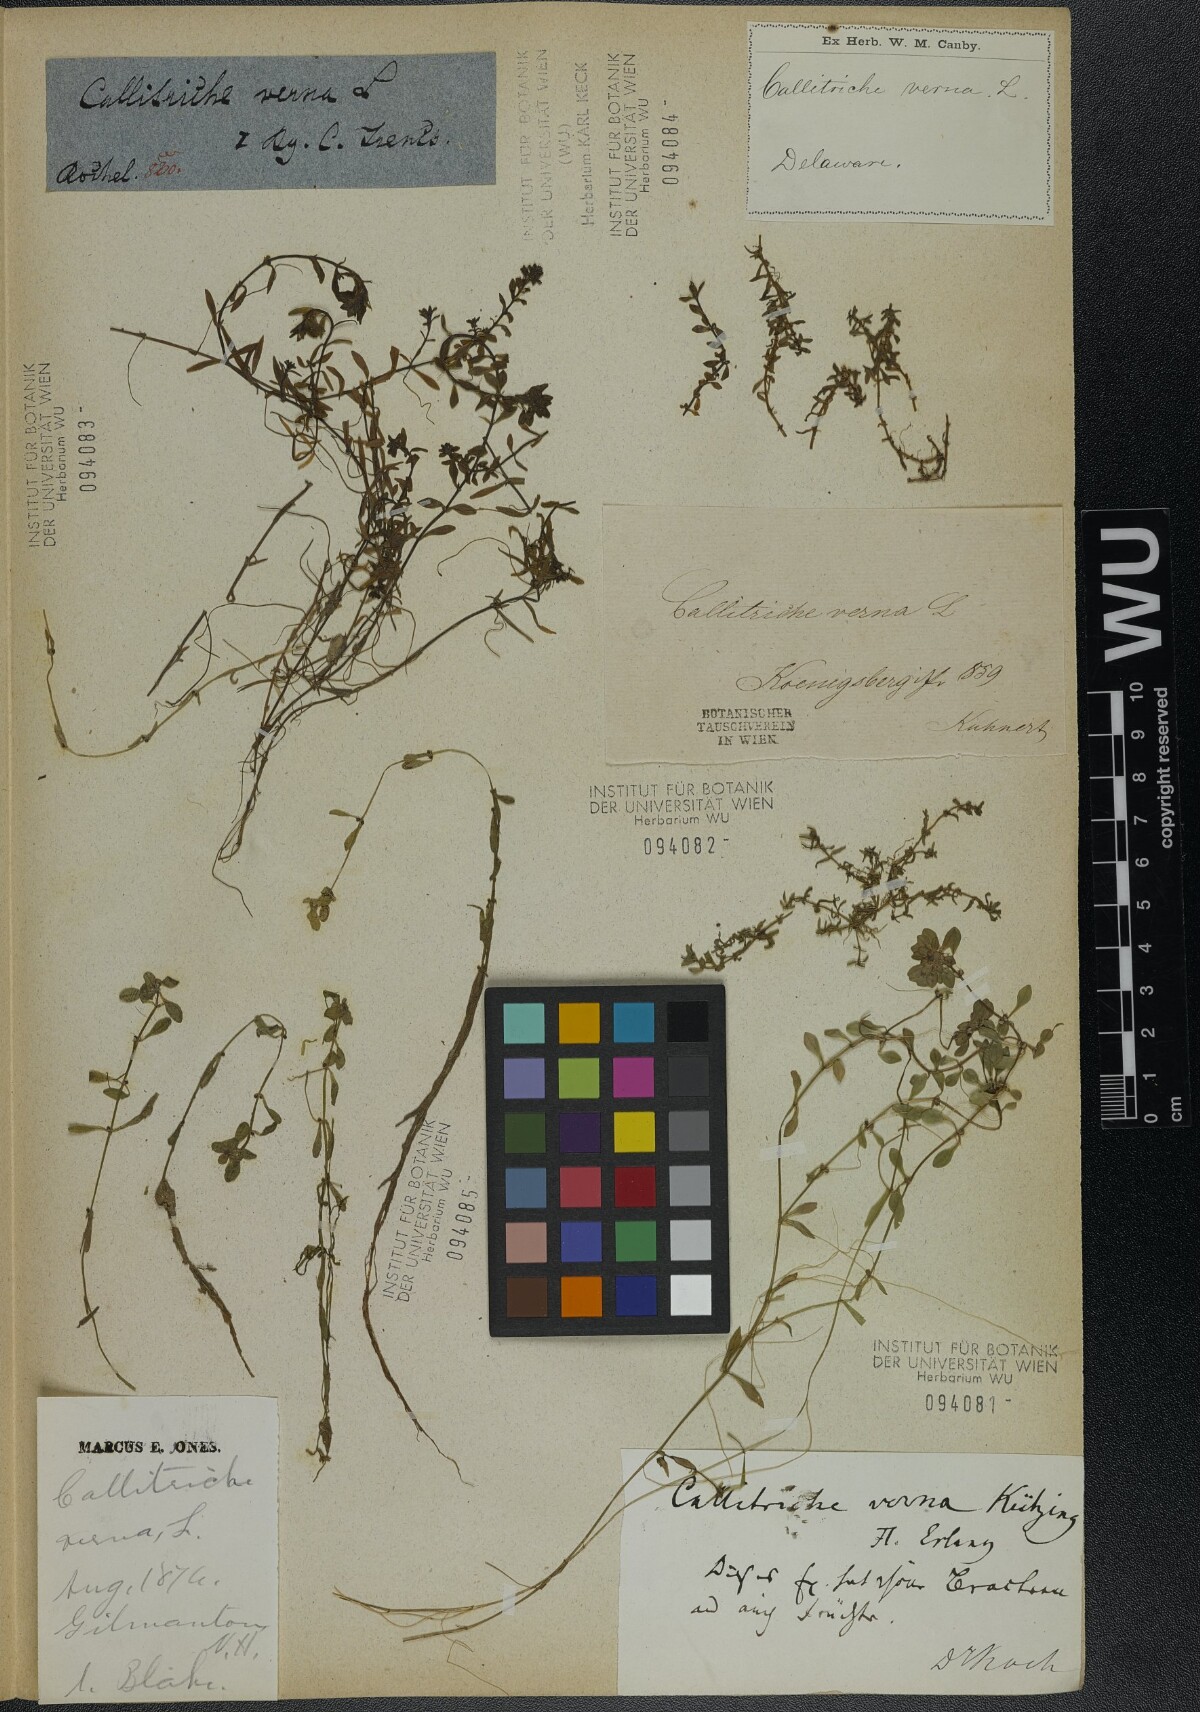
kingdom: Plantae
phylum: Tracheophyta
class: Magnoliopsida
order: Lamiales
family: Plantaginaceae
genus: Callitriche
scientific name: Callitriche palustris
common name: Spring water-starwort
